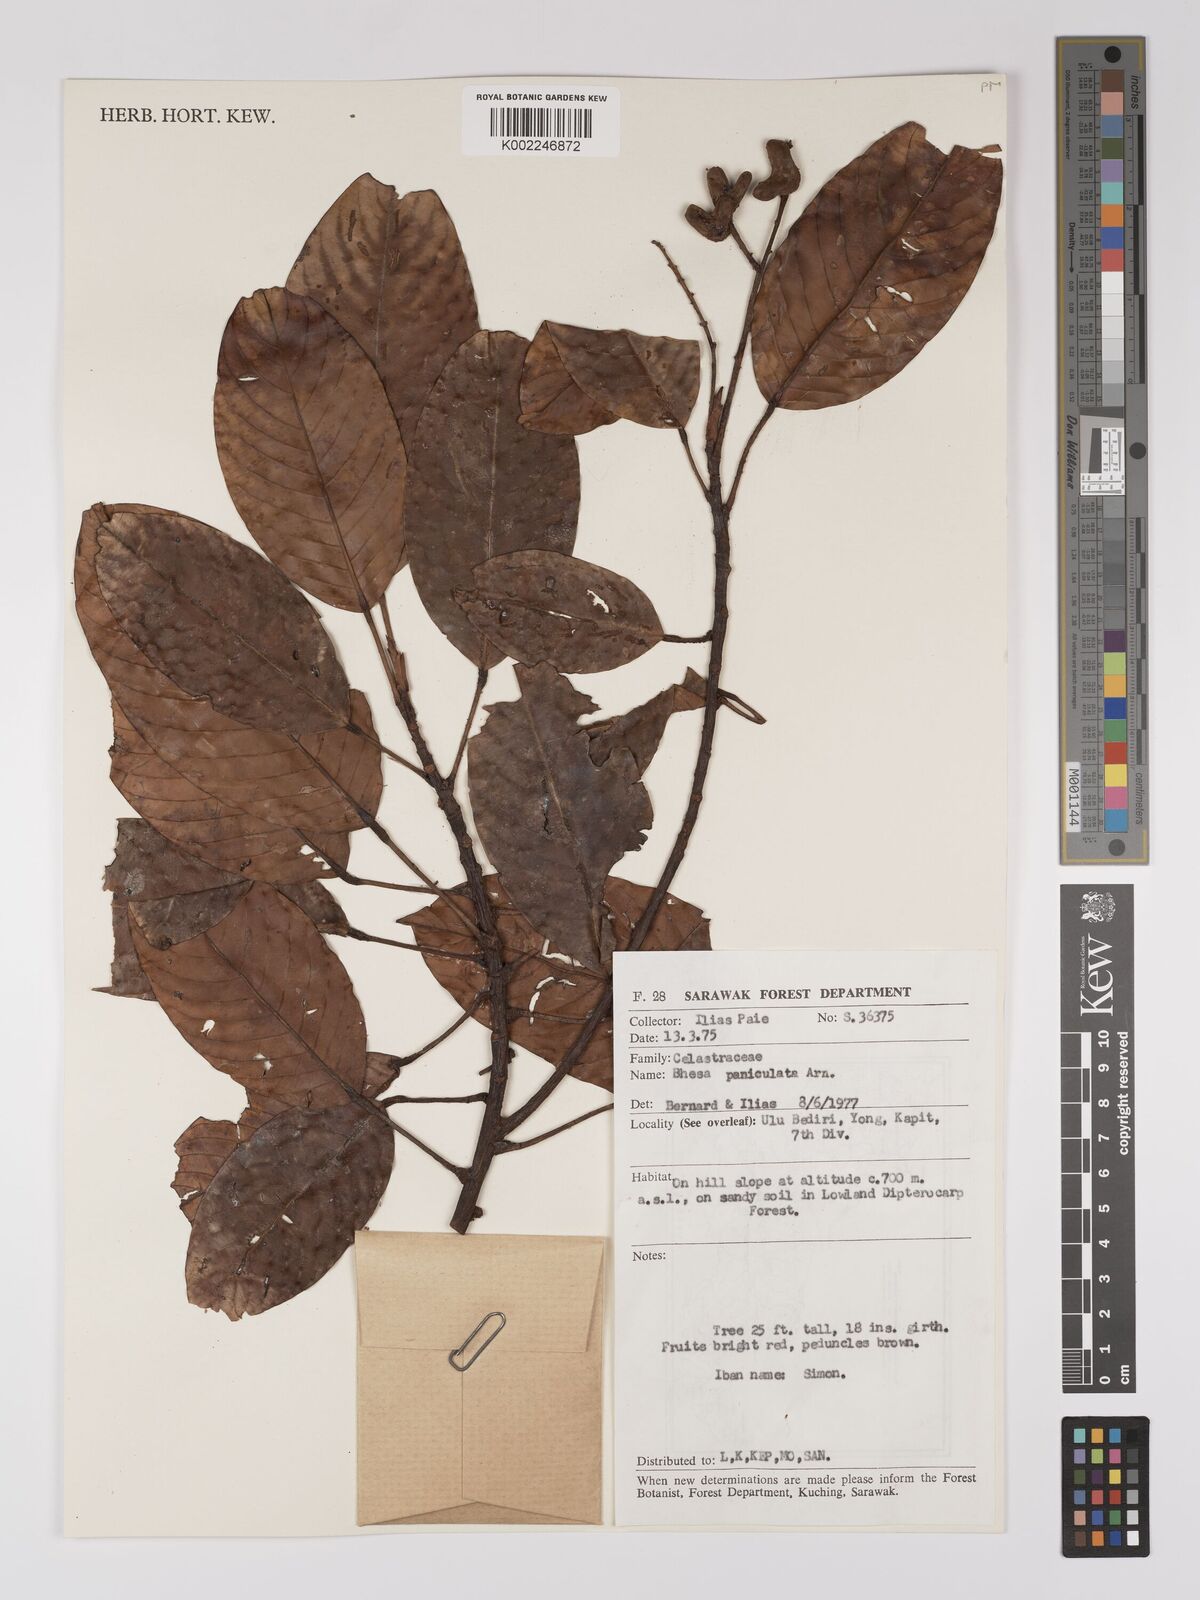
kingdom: Plantae
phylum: Tracheophyta
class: Magnoliopsida
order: Malpighiales
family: Centroplacaceae
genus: Bhesa
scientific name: Bhesa paniculata
